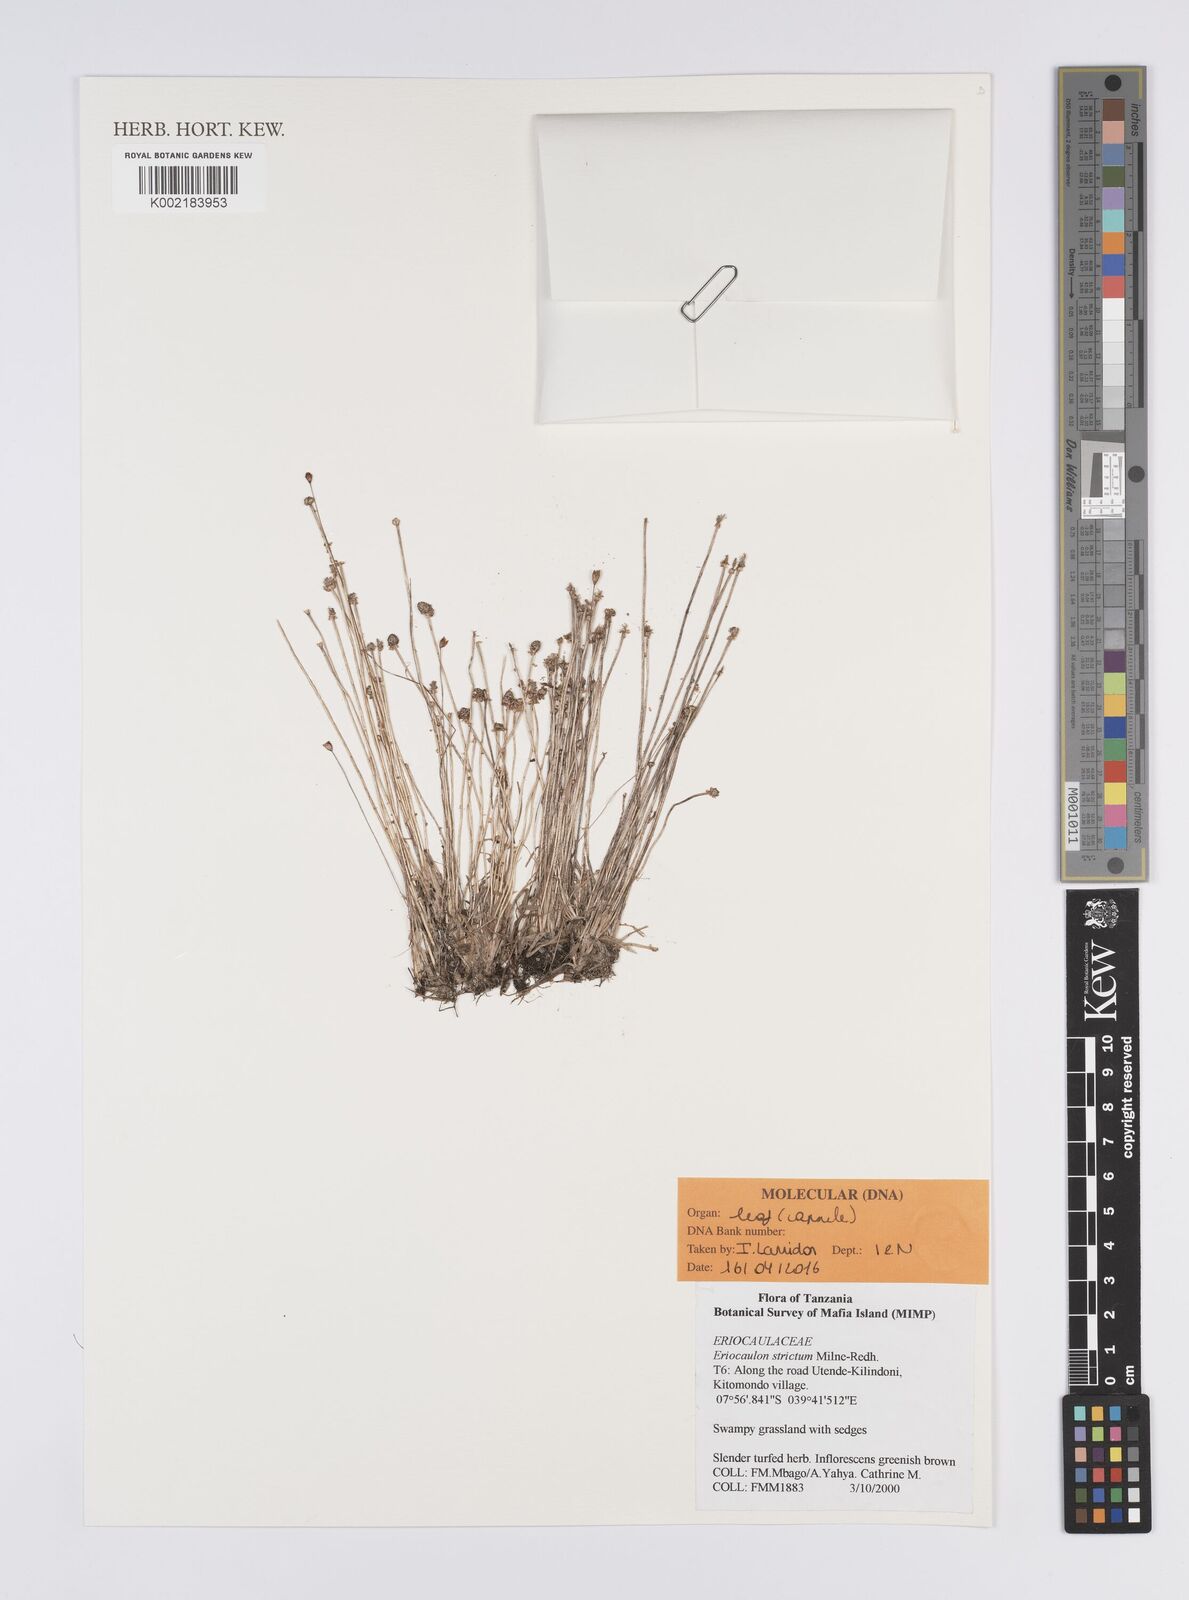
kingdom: Plantae
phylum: Tracheophyta
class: Liliopsida
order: Poales
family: Eriocaulaceae
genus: Eriocaulon
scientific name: Eriocaulon strictum
